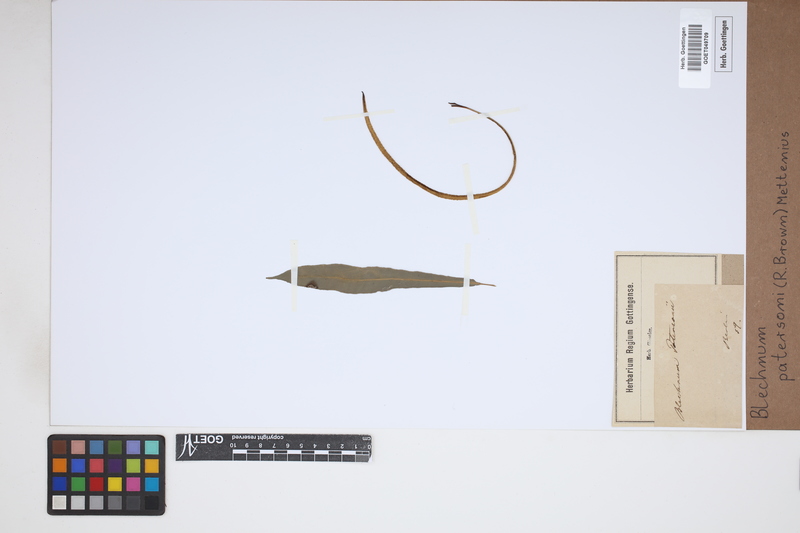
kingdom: Plantae
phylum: Tracheophyta
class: Polypodiopsida
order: Polypodiales
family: Blechnaceae
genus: Austroblechnum
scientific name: Austroblechnum patersonii
